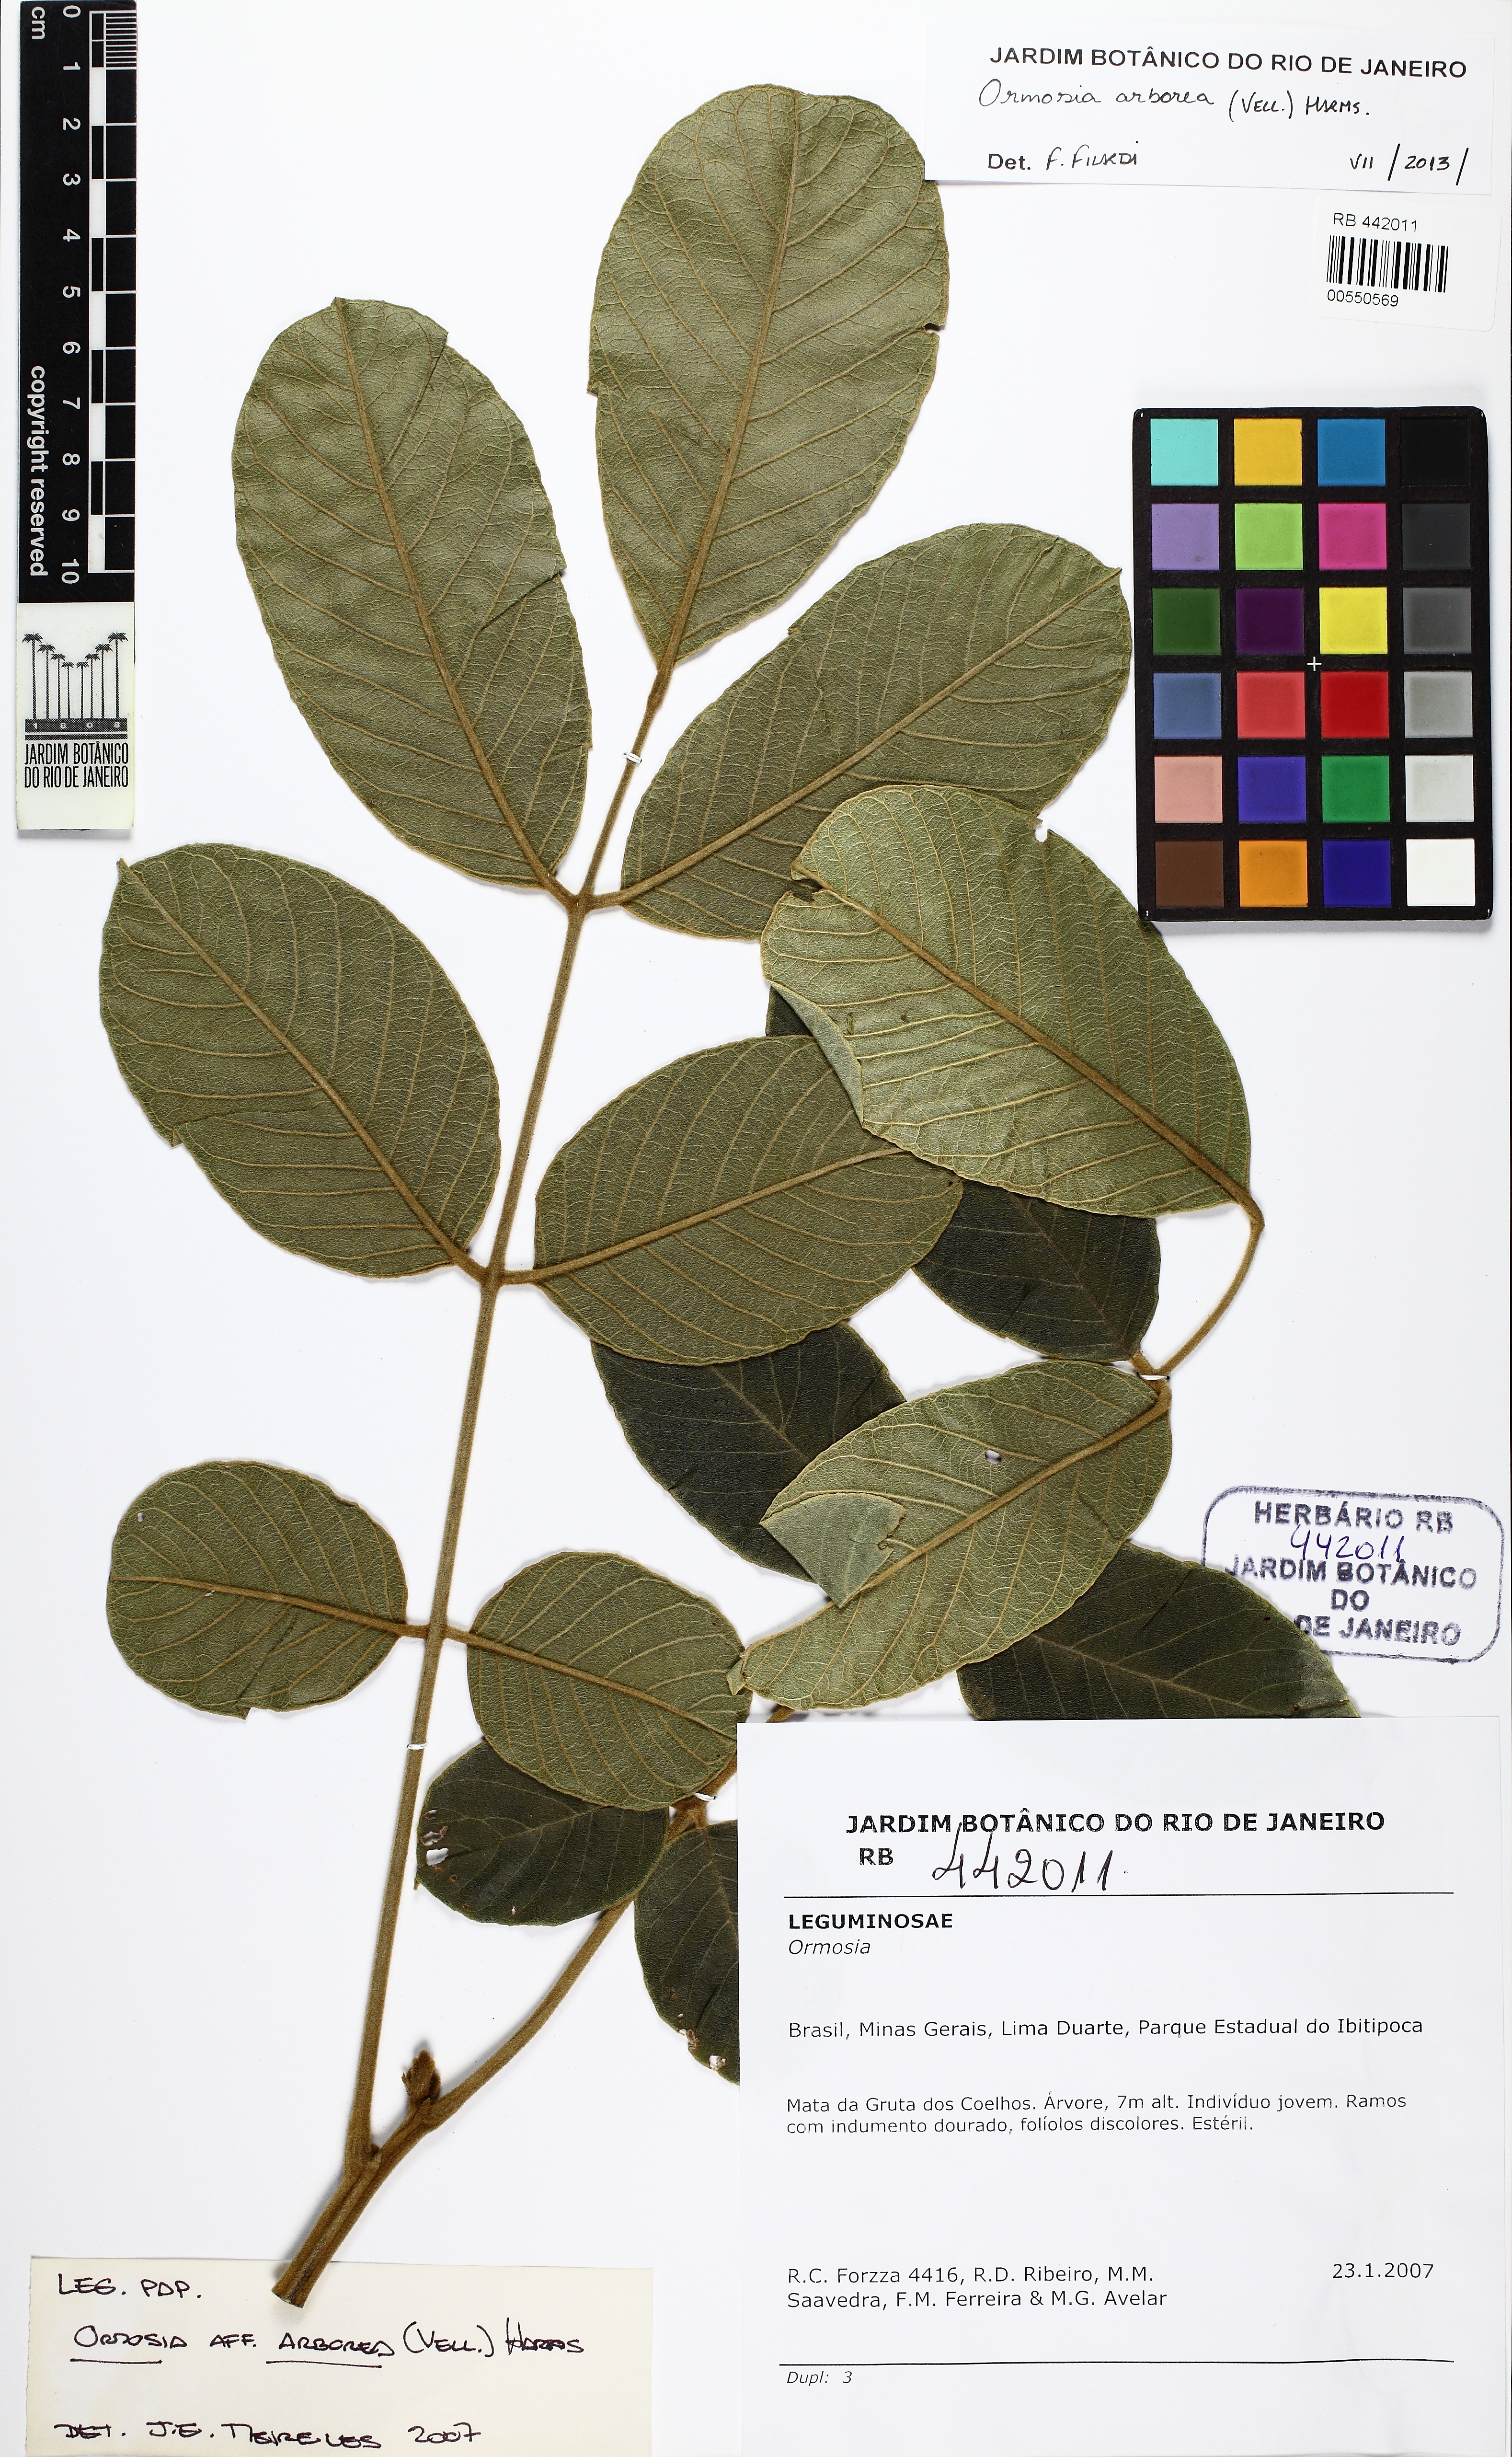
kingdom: Plantae
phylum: Tracheophyta
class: Magnoliopsida
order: Fabales
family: Fabaceae
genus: Ormosia
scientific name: Ormosia arborea
